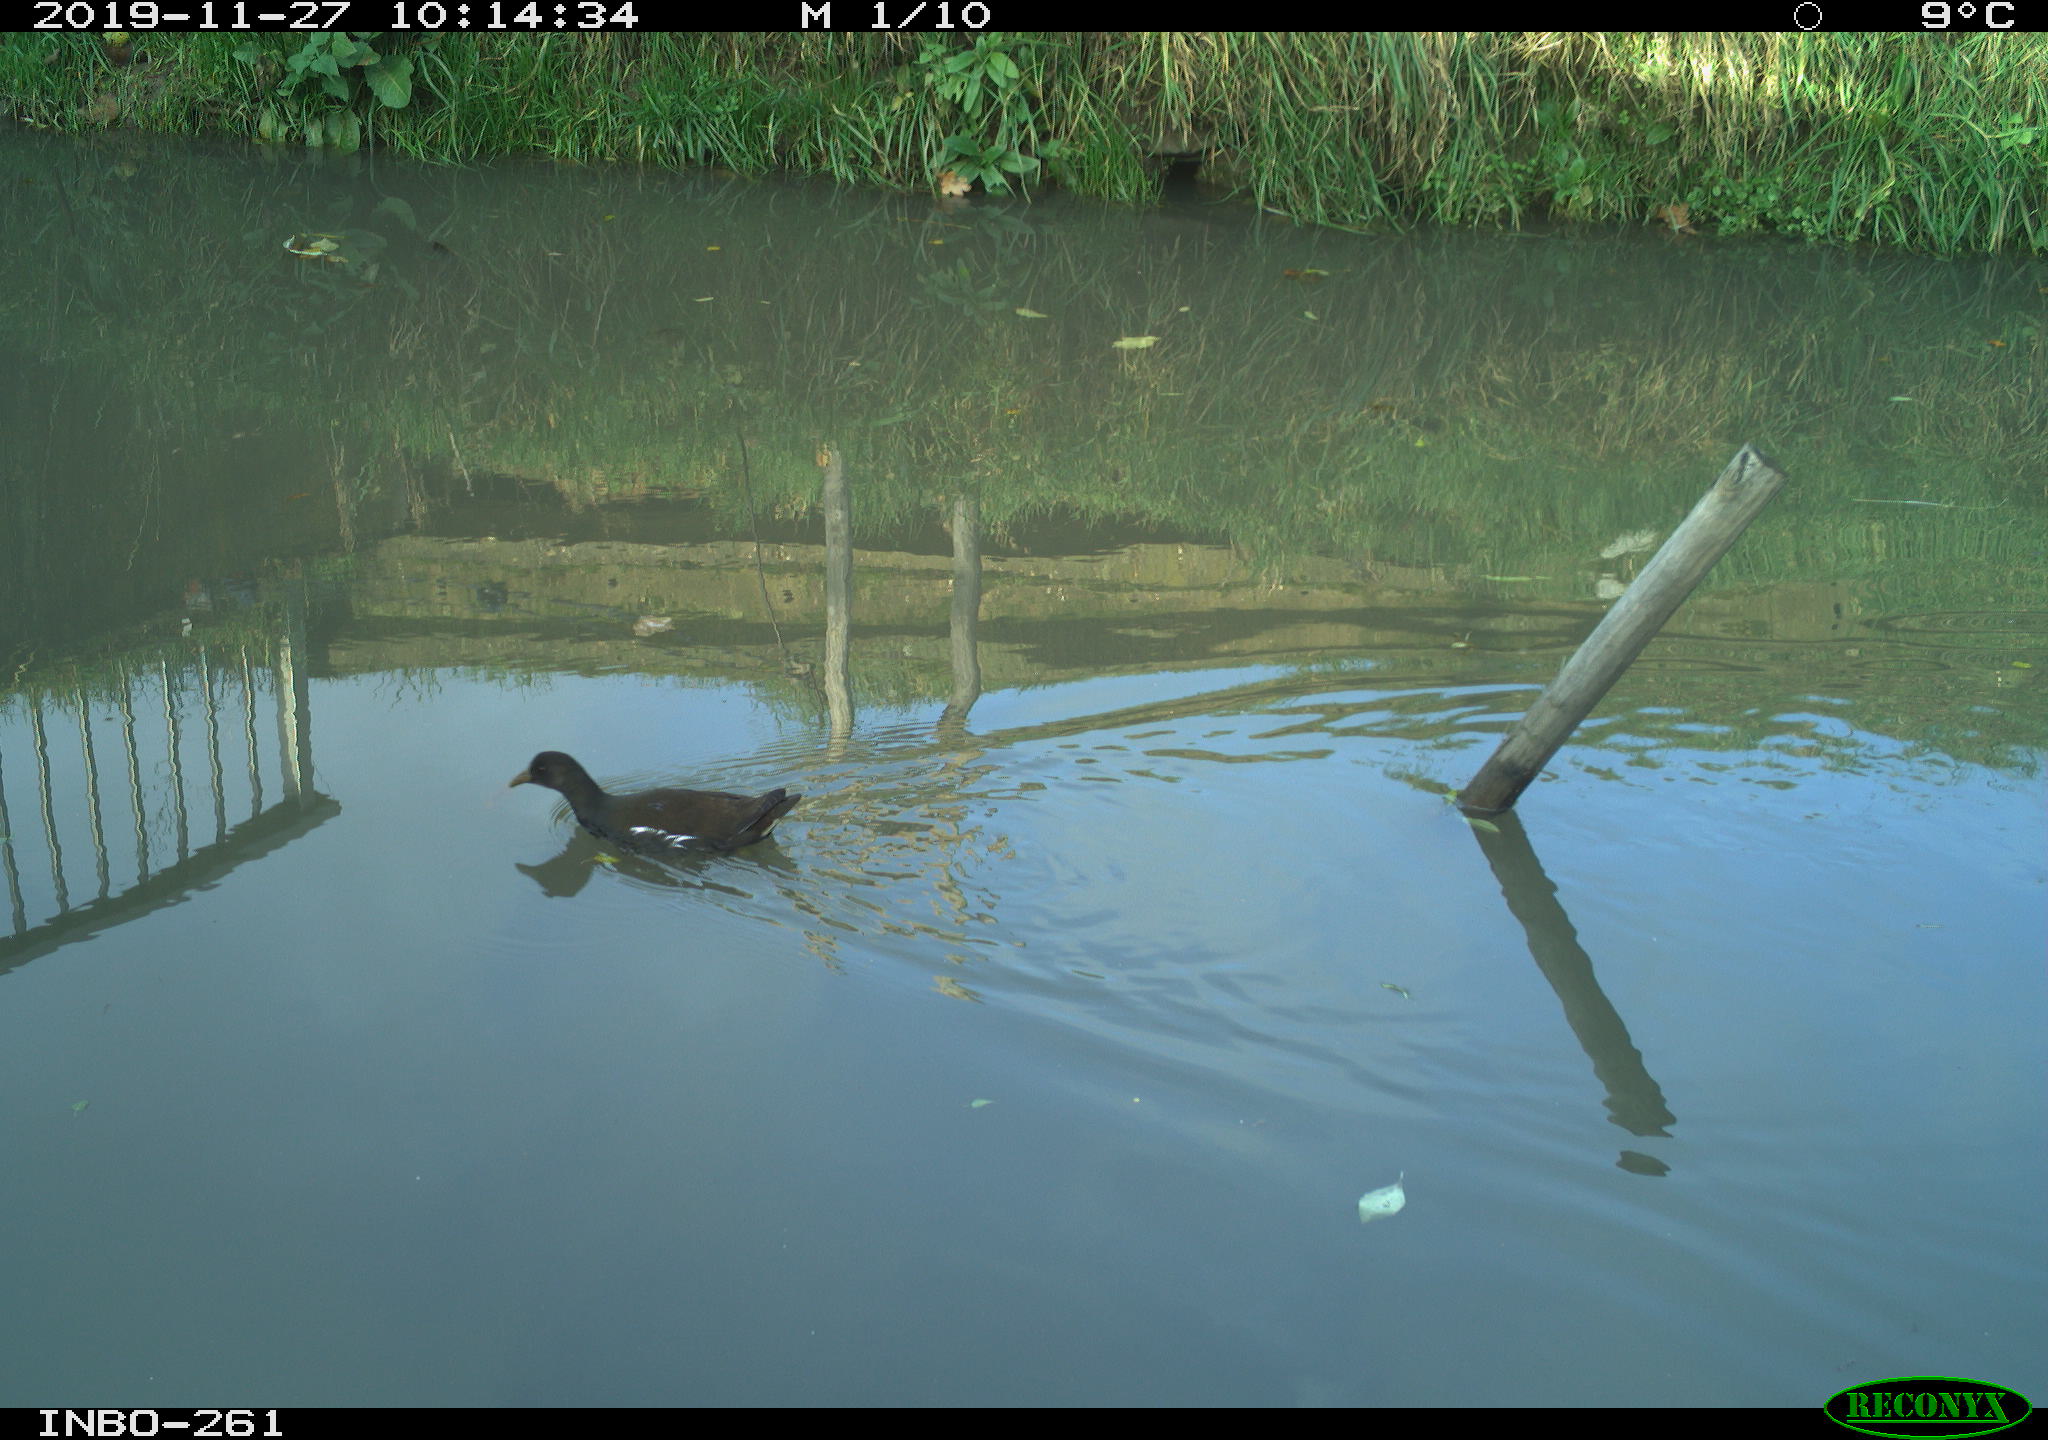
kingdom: Animalia
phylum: Chordata
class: Aves
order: Gruiformes
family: Rallidae
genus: Gallinula
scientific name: Gallinula chloropus
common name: Common moorhen
